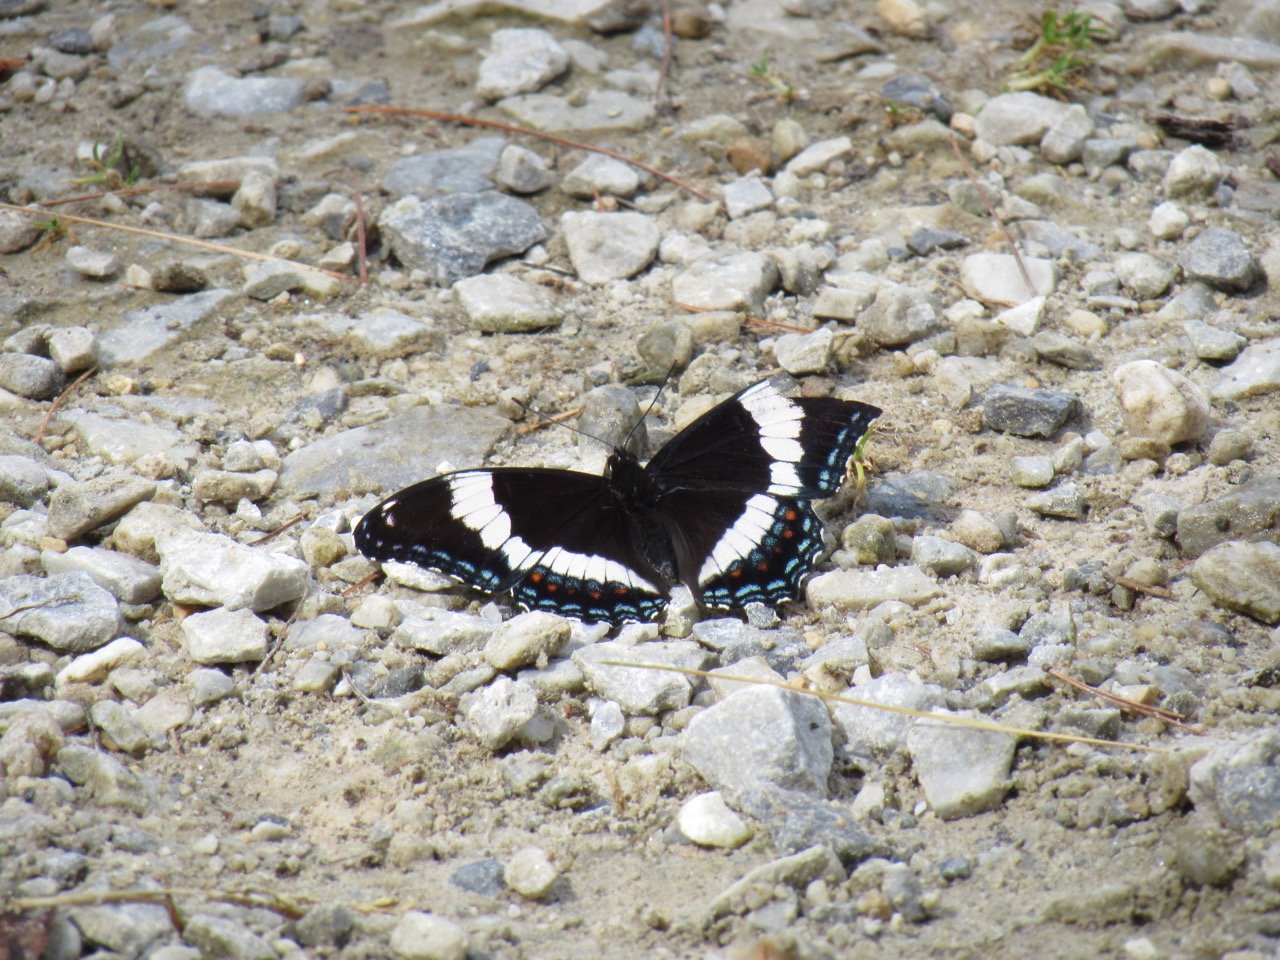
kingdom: Animalia
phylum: Arthropoda
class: Insecta
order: Lepidoptera
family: Nymphalidae
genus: Limenitis
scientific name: Limenitis arthemis
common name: Red-spotted Admiral
